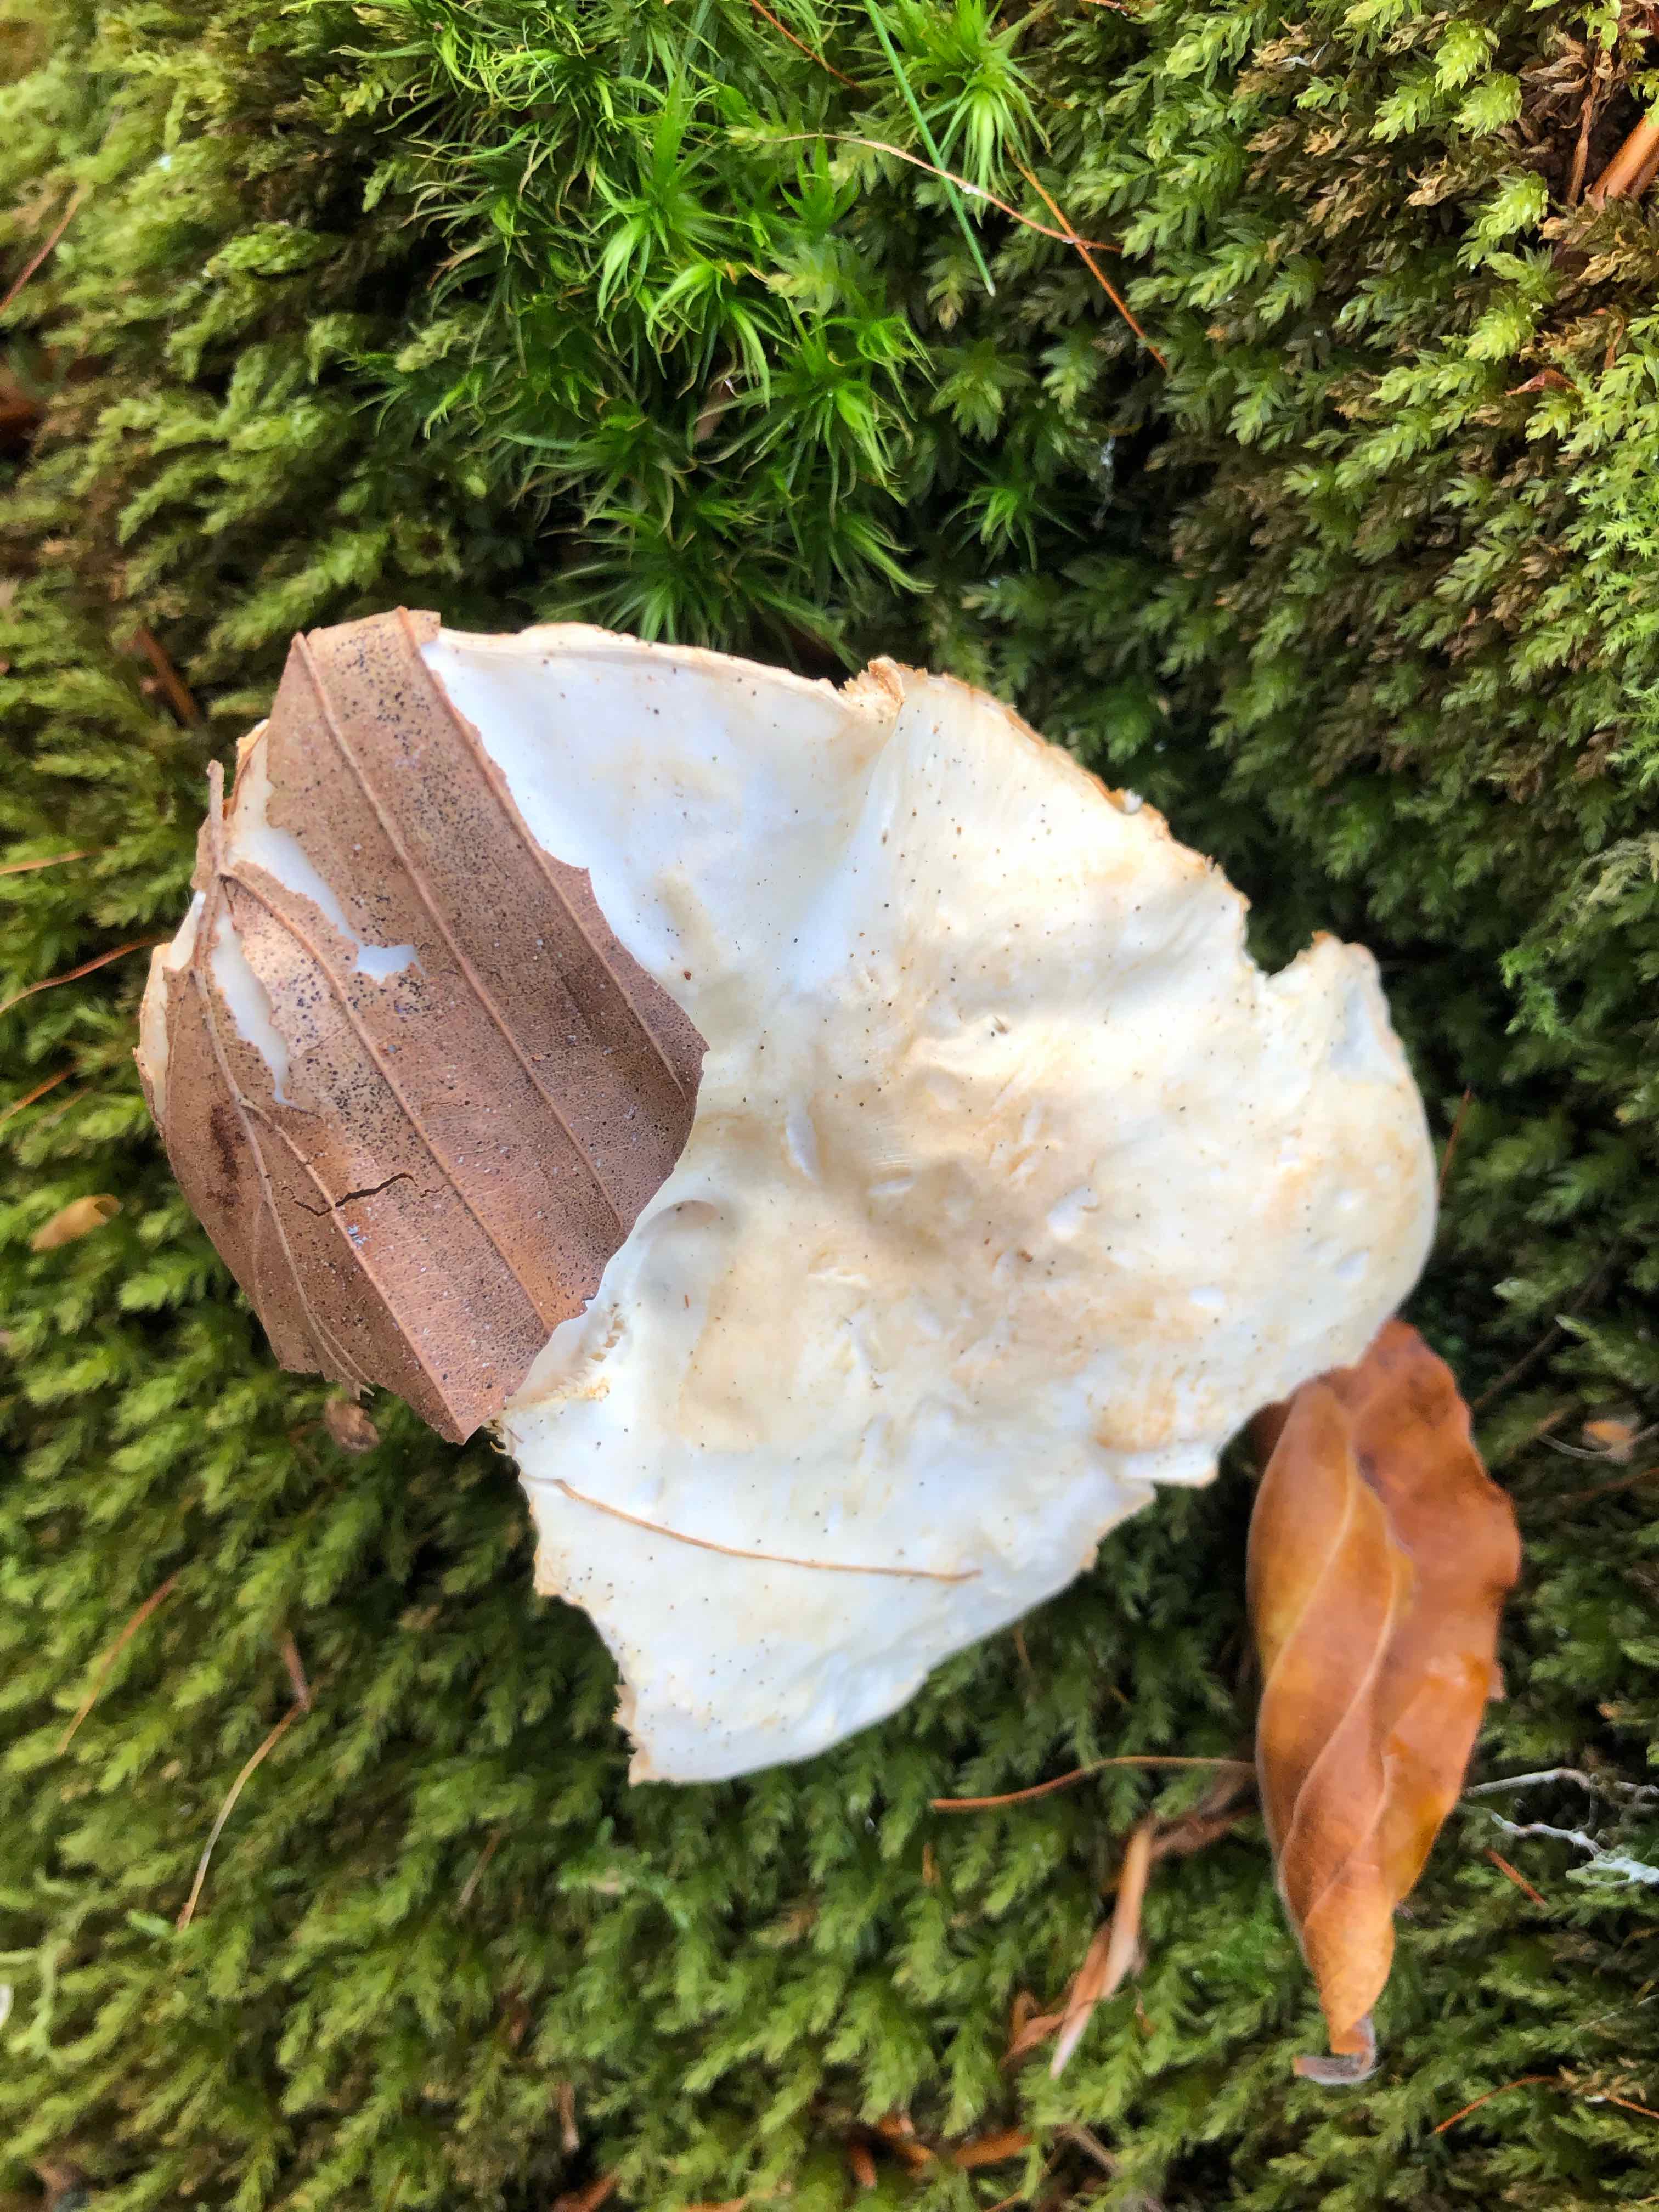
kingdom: Fungi
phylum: Basidiomycota
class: Agaricomycetes
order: Cantharellales
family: Hydnaceae
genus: Hydnum
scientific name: Hydnum repandum
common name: almindelig pigsvamp
